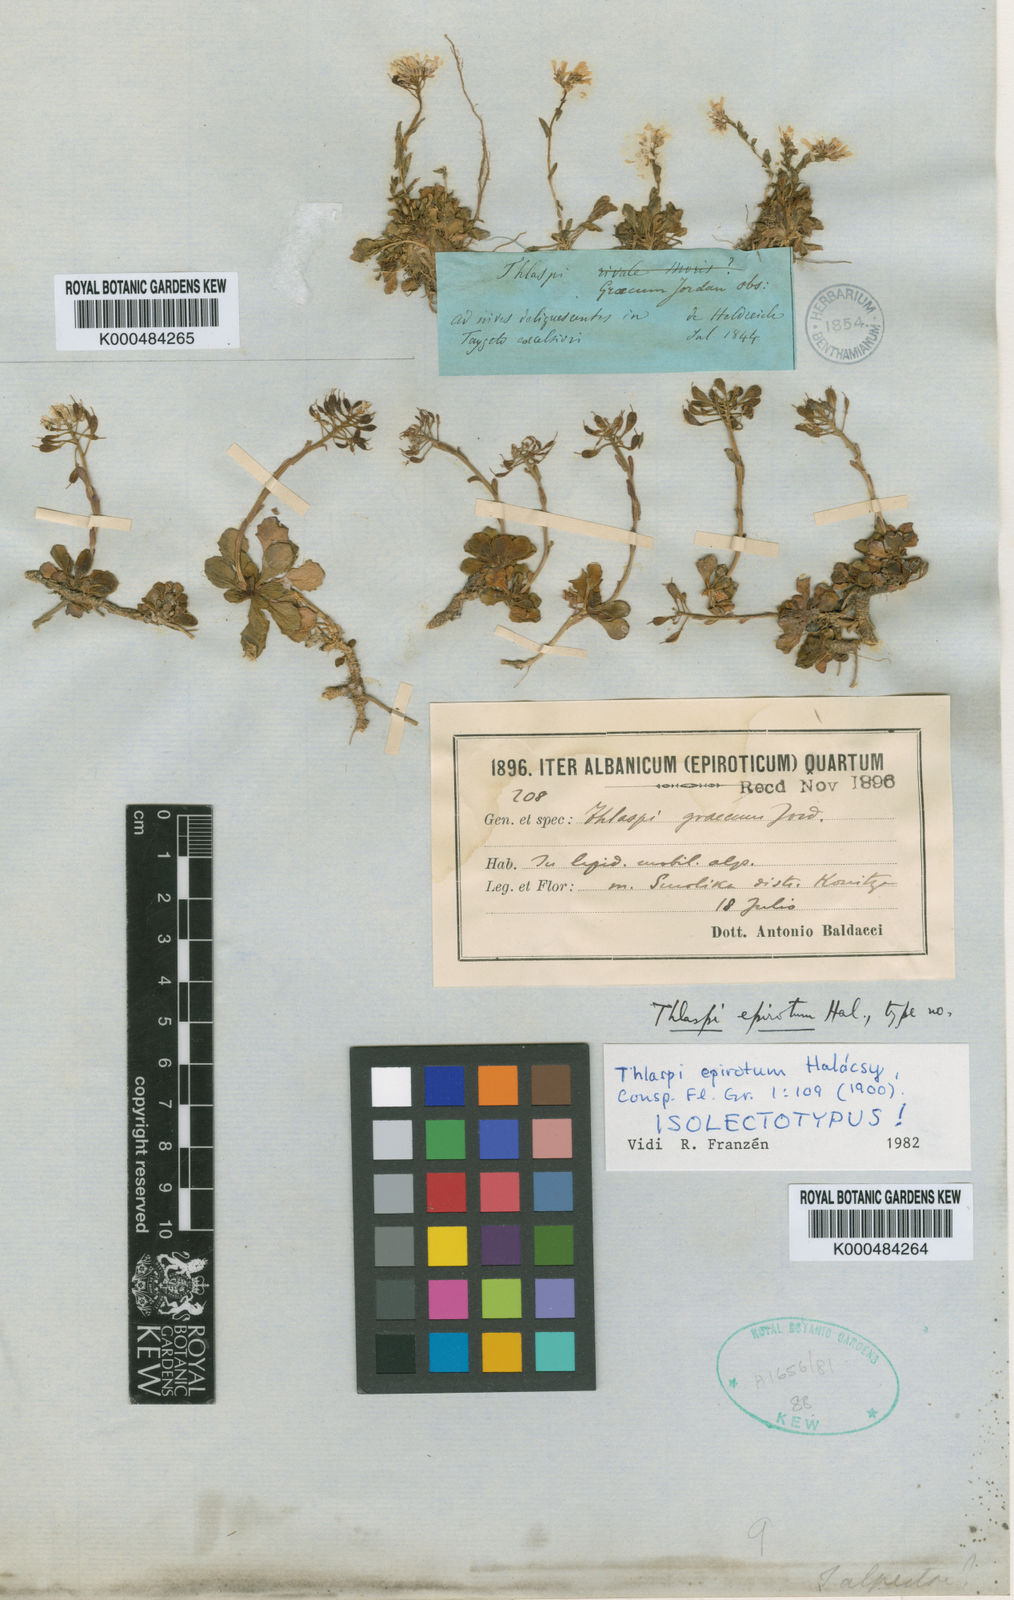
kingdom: Plantae
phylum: Tracheophyta
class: Magnoliopsida
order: Brassicales
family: Brassicaceae
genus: Thlaspi
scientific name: Thlaspi
